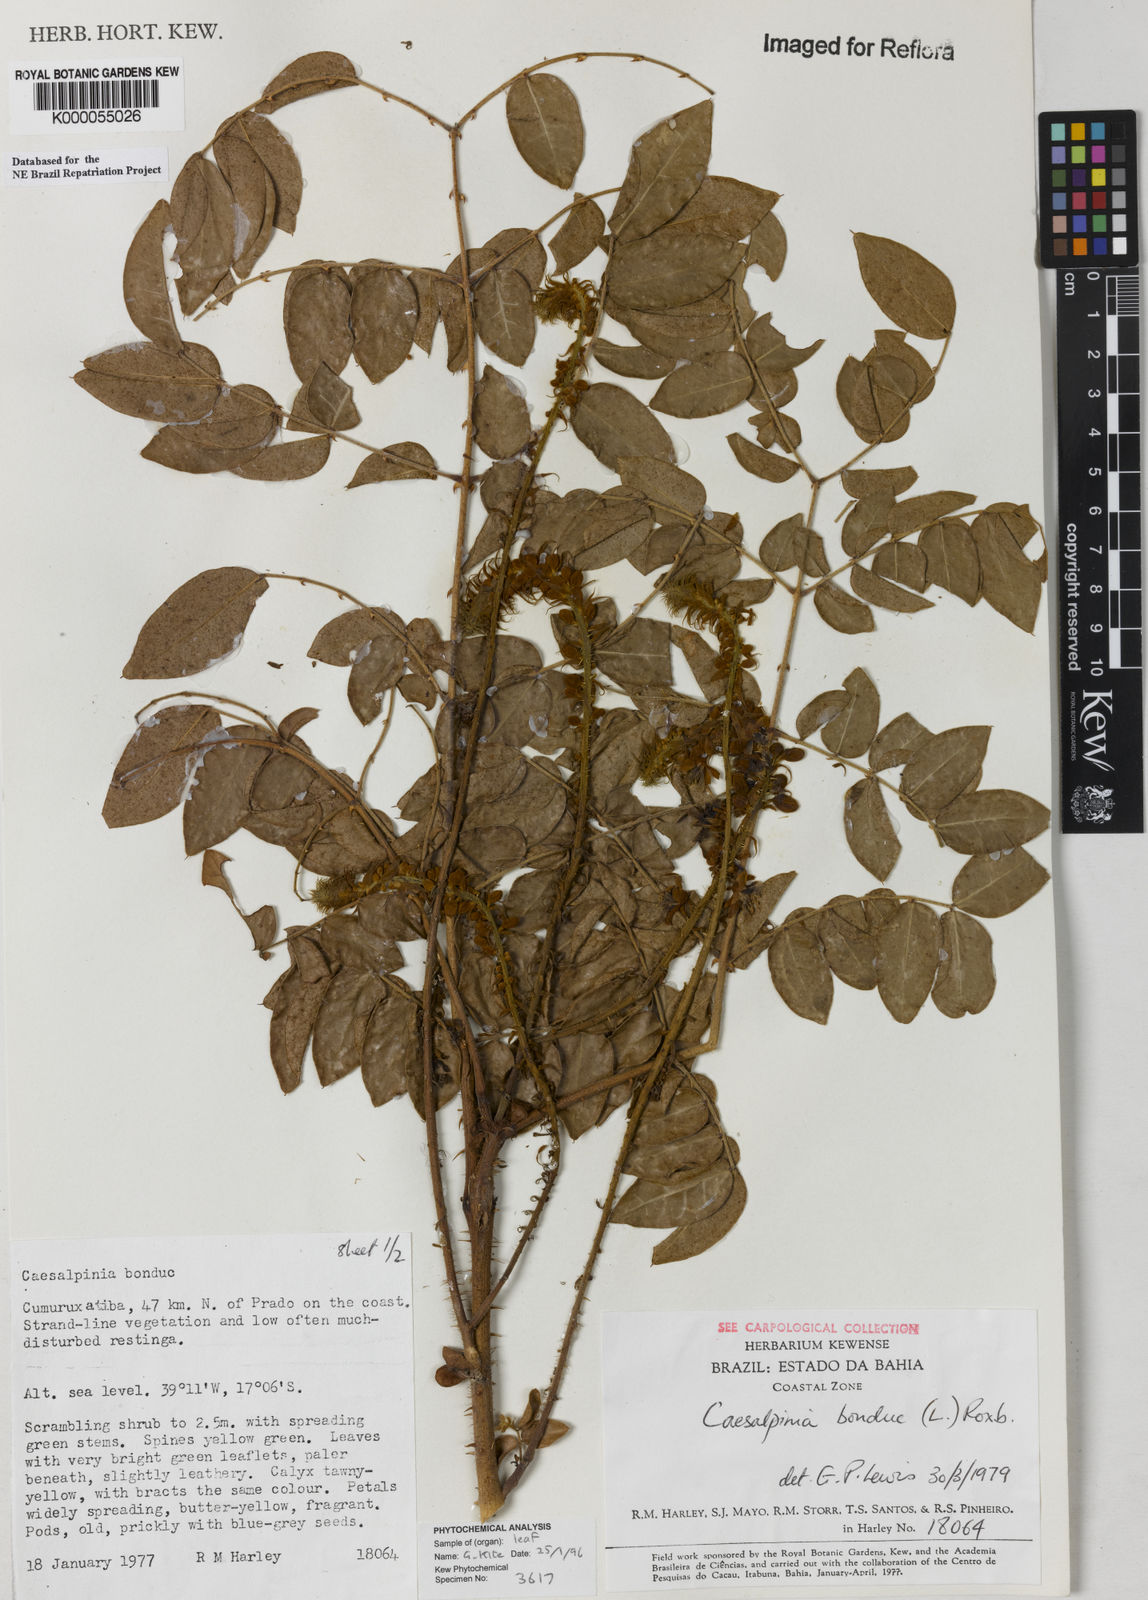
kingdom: Plantae
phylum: Tracheophyta
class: Magnoliopsida
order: Fabales
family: Fabaceae
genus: Guilandina
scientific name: Guilandina bonduc
